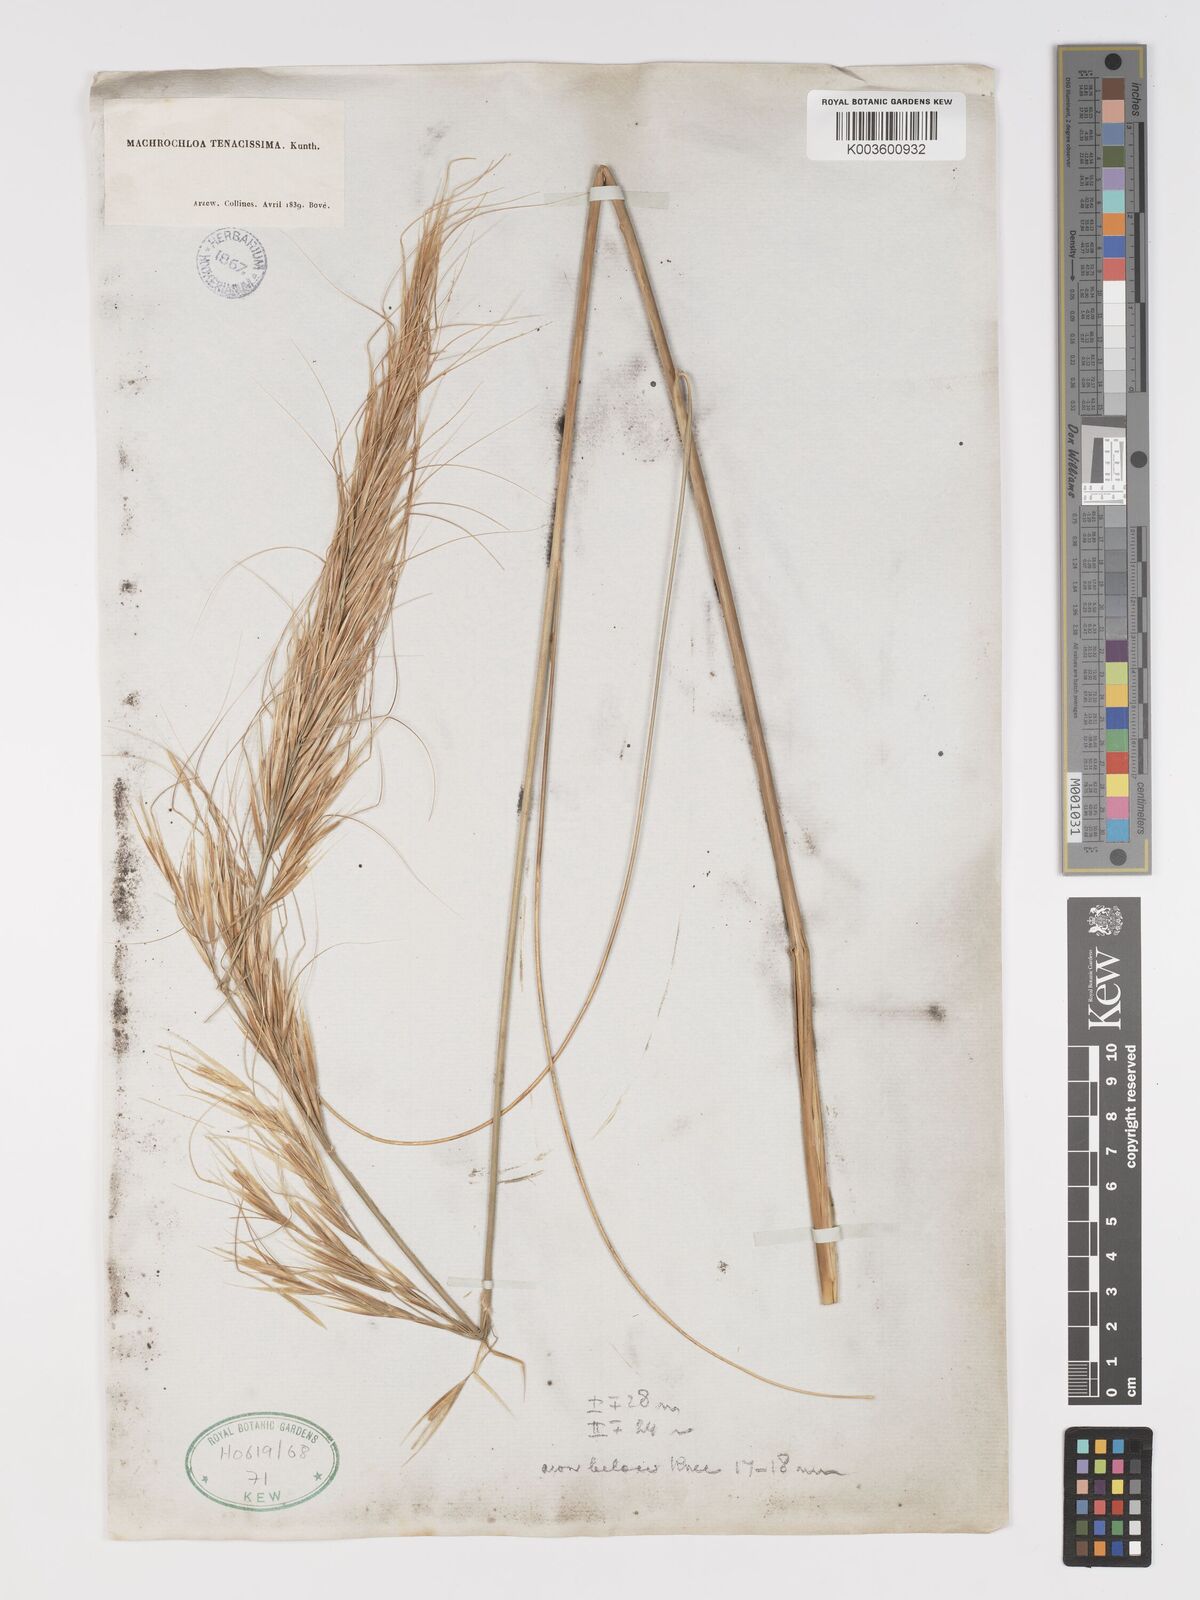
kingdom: Plantae
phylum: Tracheophyta
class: Liliopsida
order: Poales
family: Poaceae
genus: Macrochloa
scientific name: Macrochloa tenacissima
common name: Alfa grass
